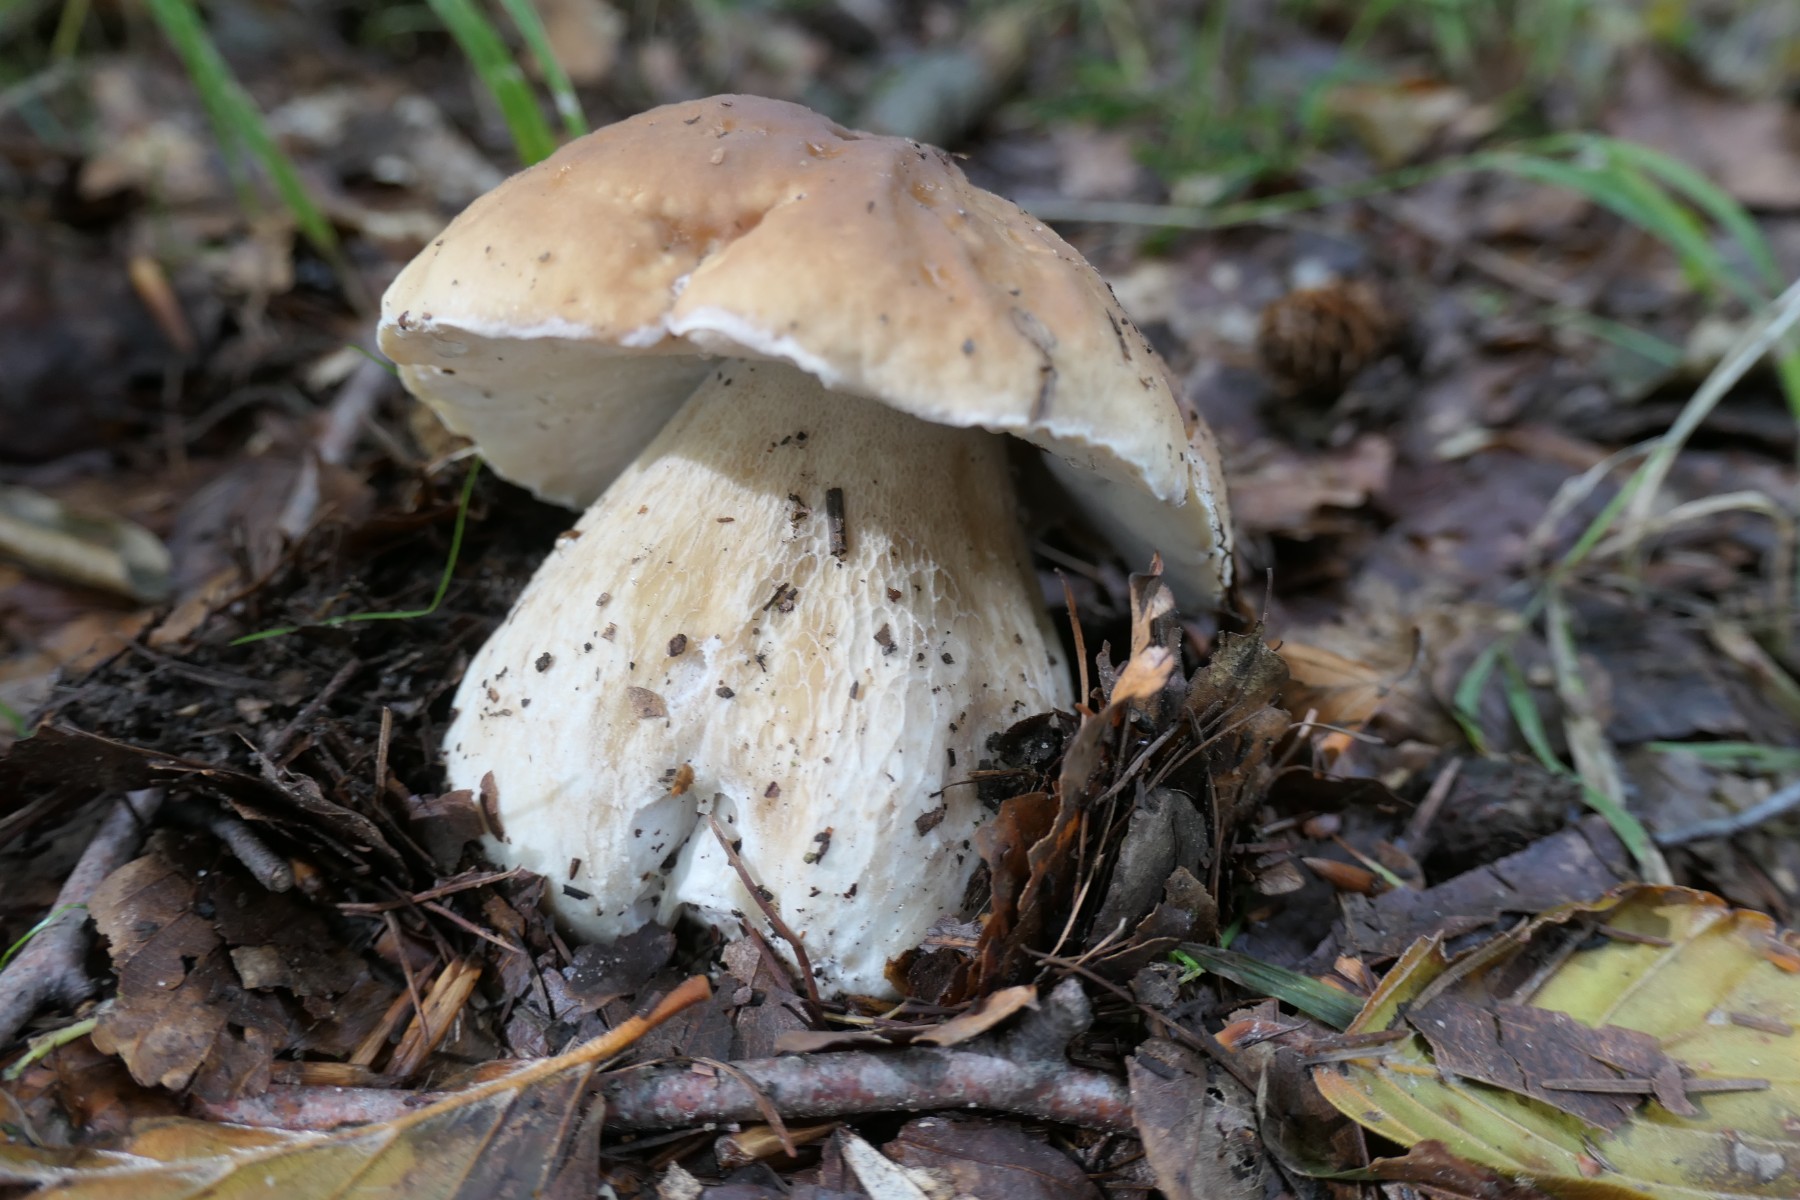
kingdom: Fungi
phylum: Basidiomycota
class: Agaricomycetes
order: Boletales
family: Boletaceae
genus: Boletus
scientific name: Boletus edulis
